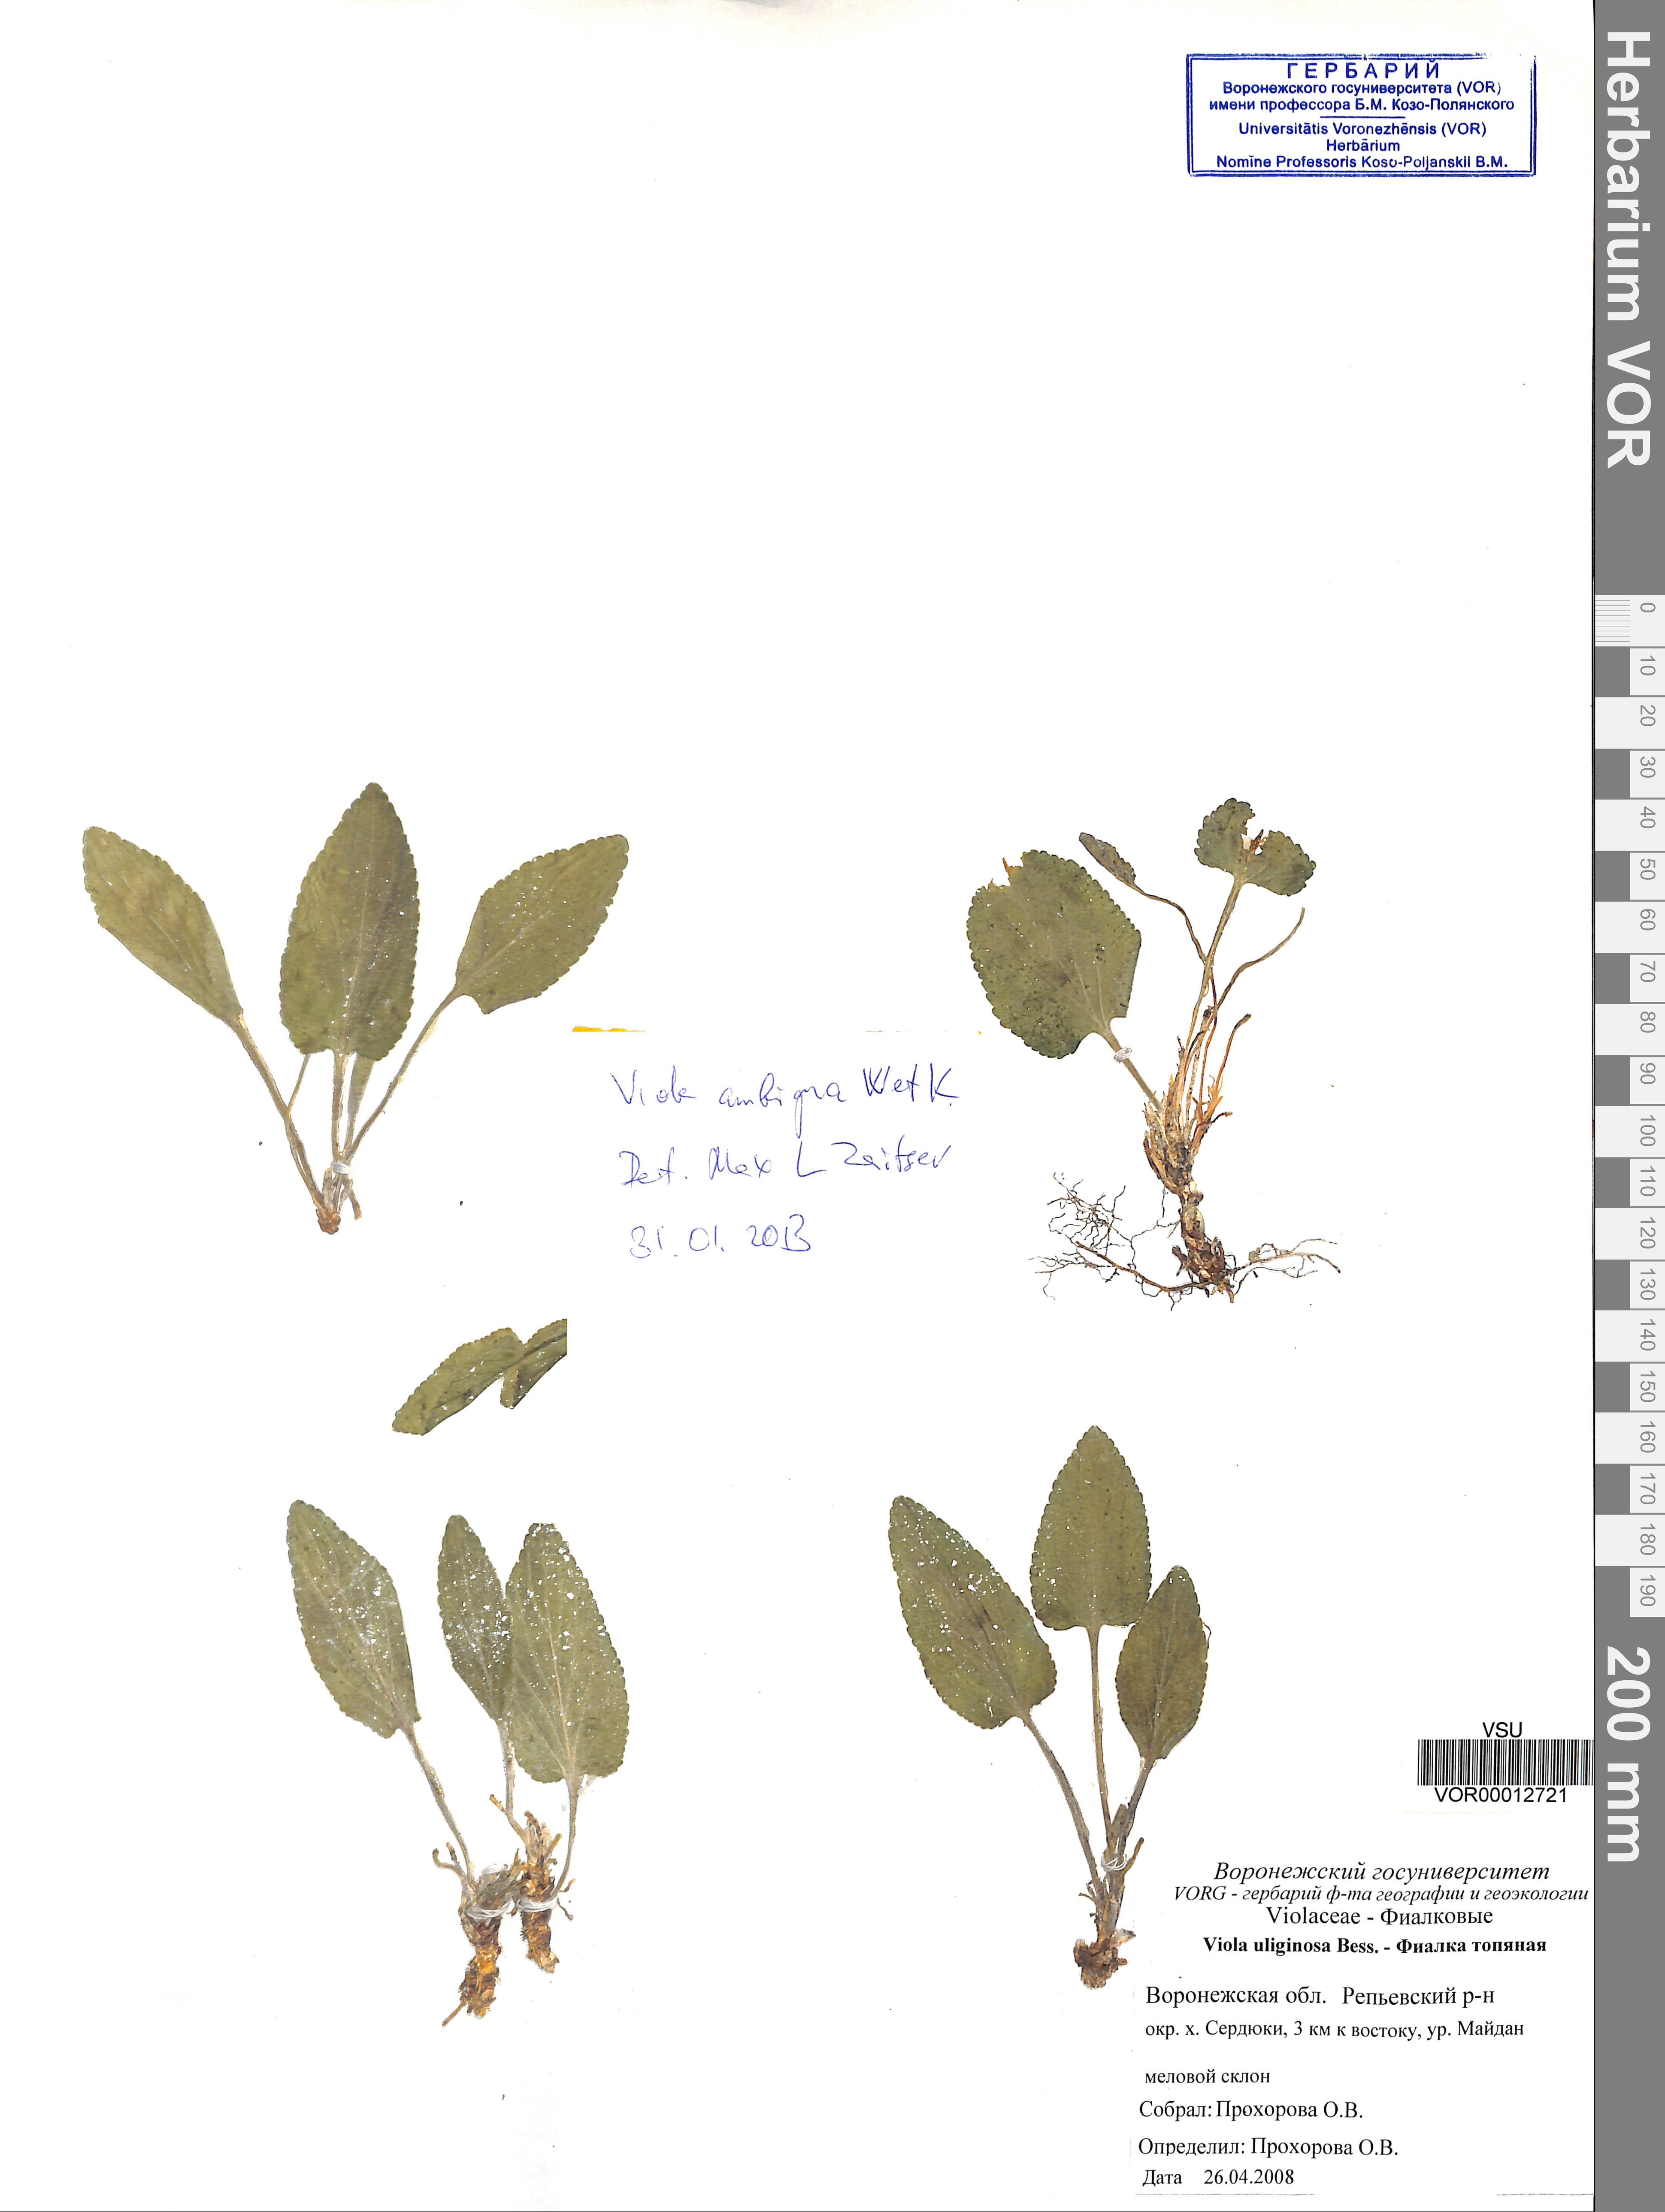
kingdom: Plantae
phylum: Tracheophyta
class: Magnoliopsida
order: Malpighiales
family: Violaceae
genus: Viola
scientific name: Viola ambigua
